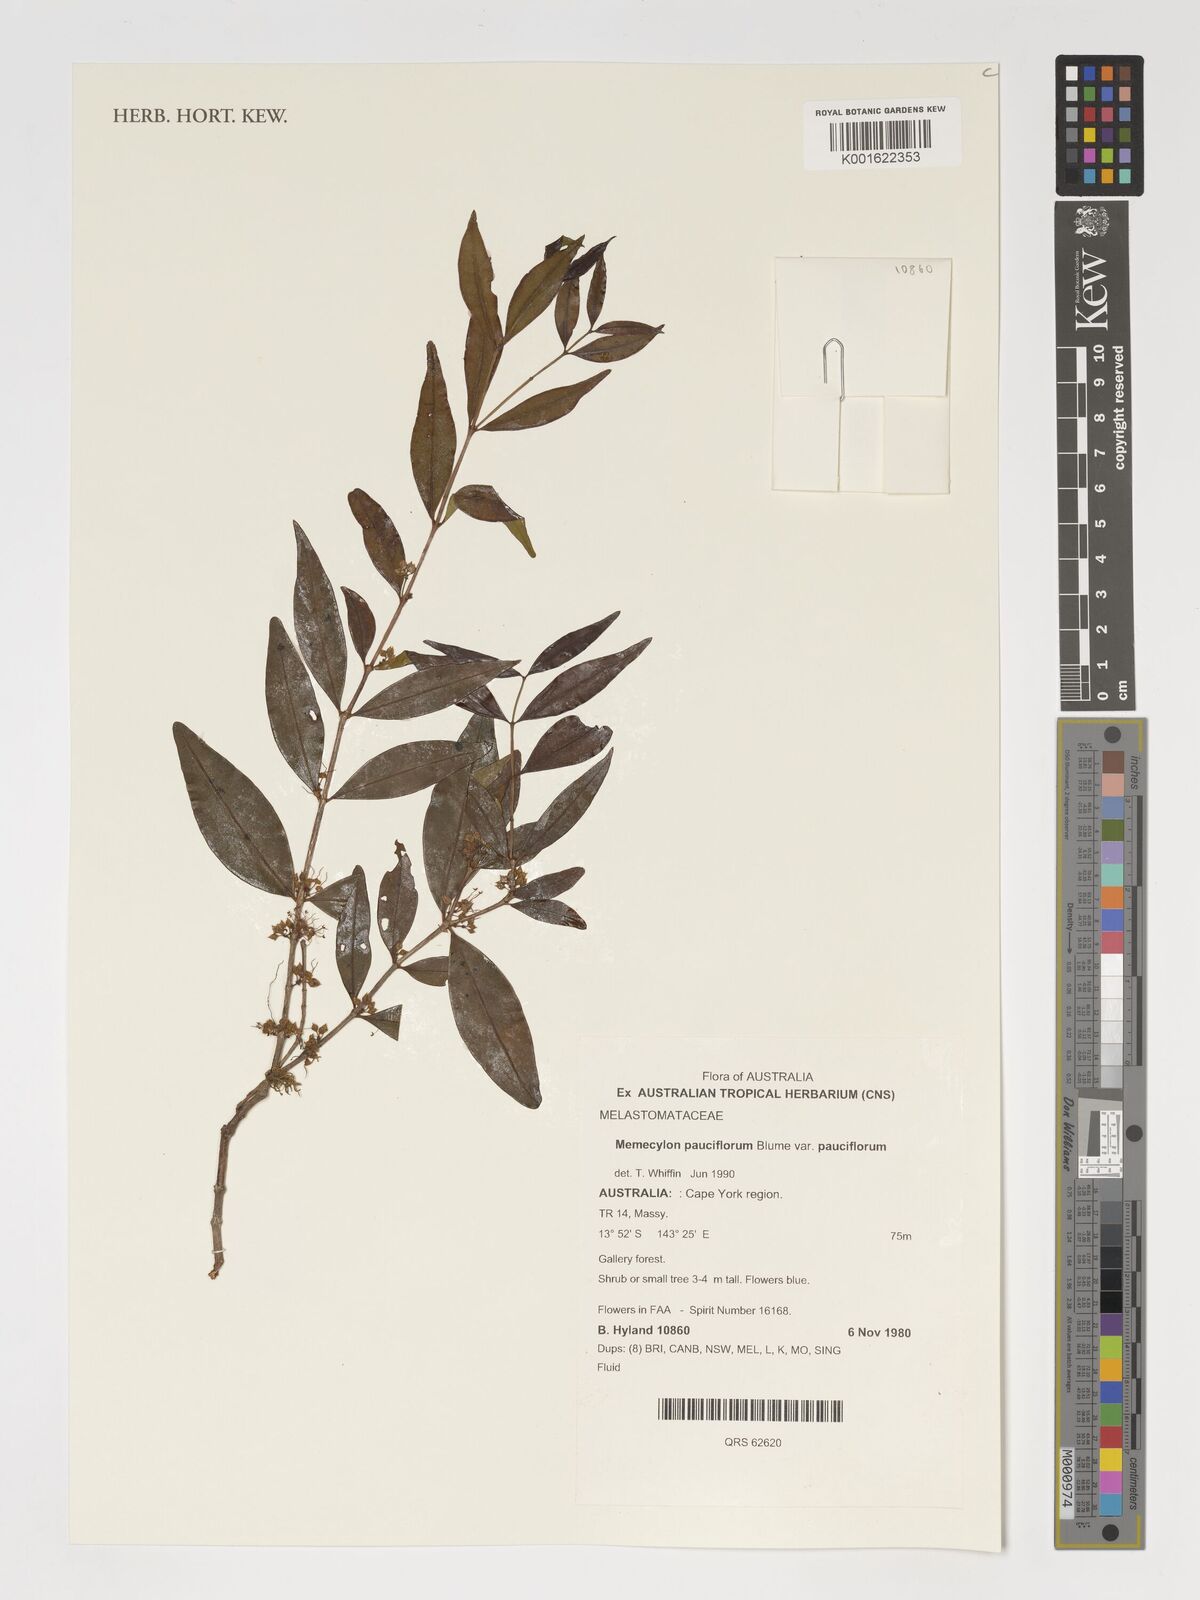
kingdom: Plantae
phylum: Tracheophyta
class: Magnoliopsida
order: Myrtales
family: Melastomataceae
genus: Memecylon
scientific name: Memecylon pauciflorum
